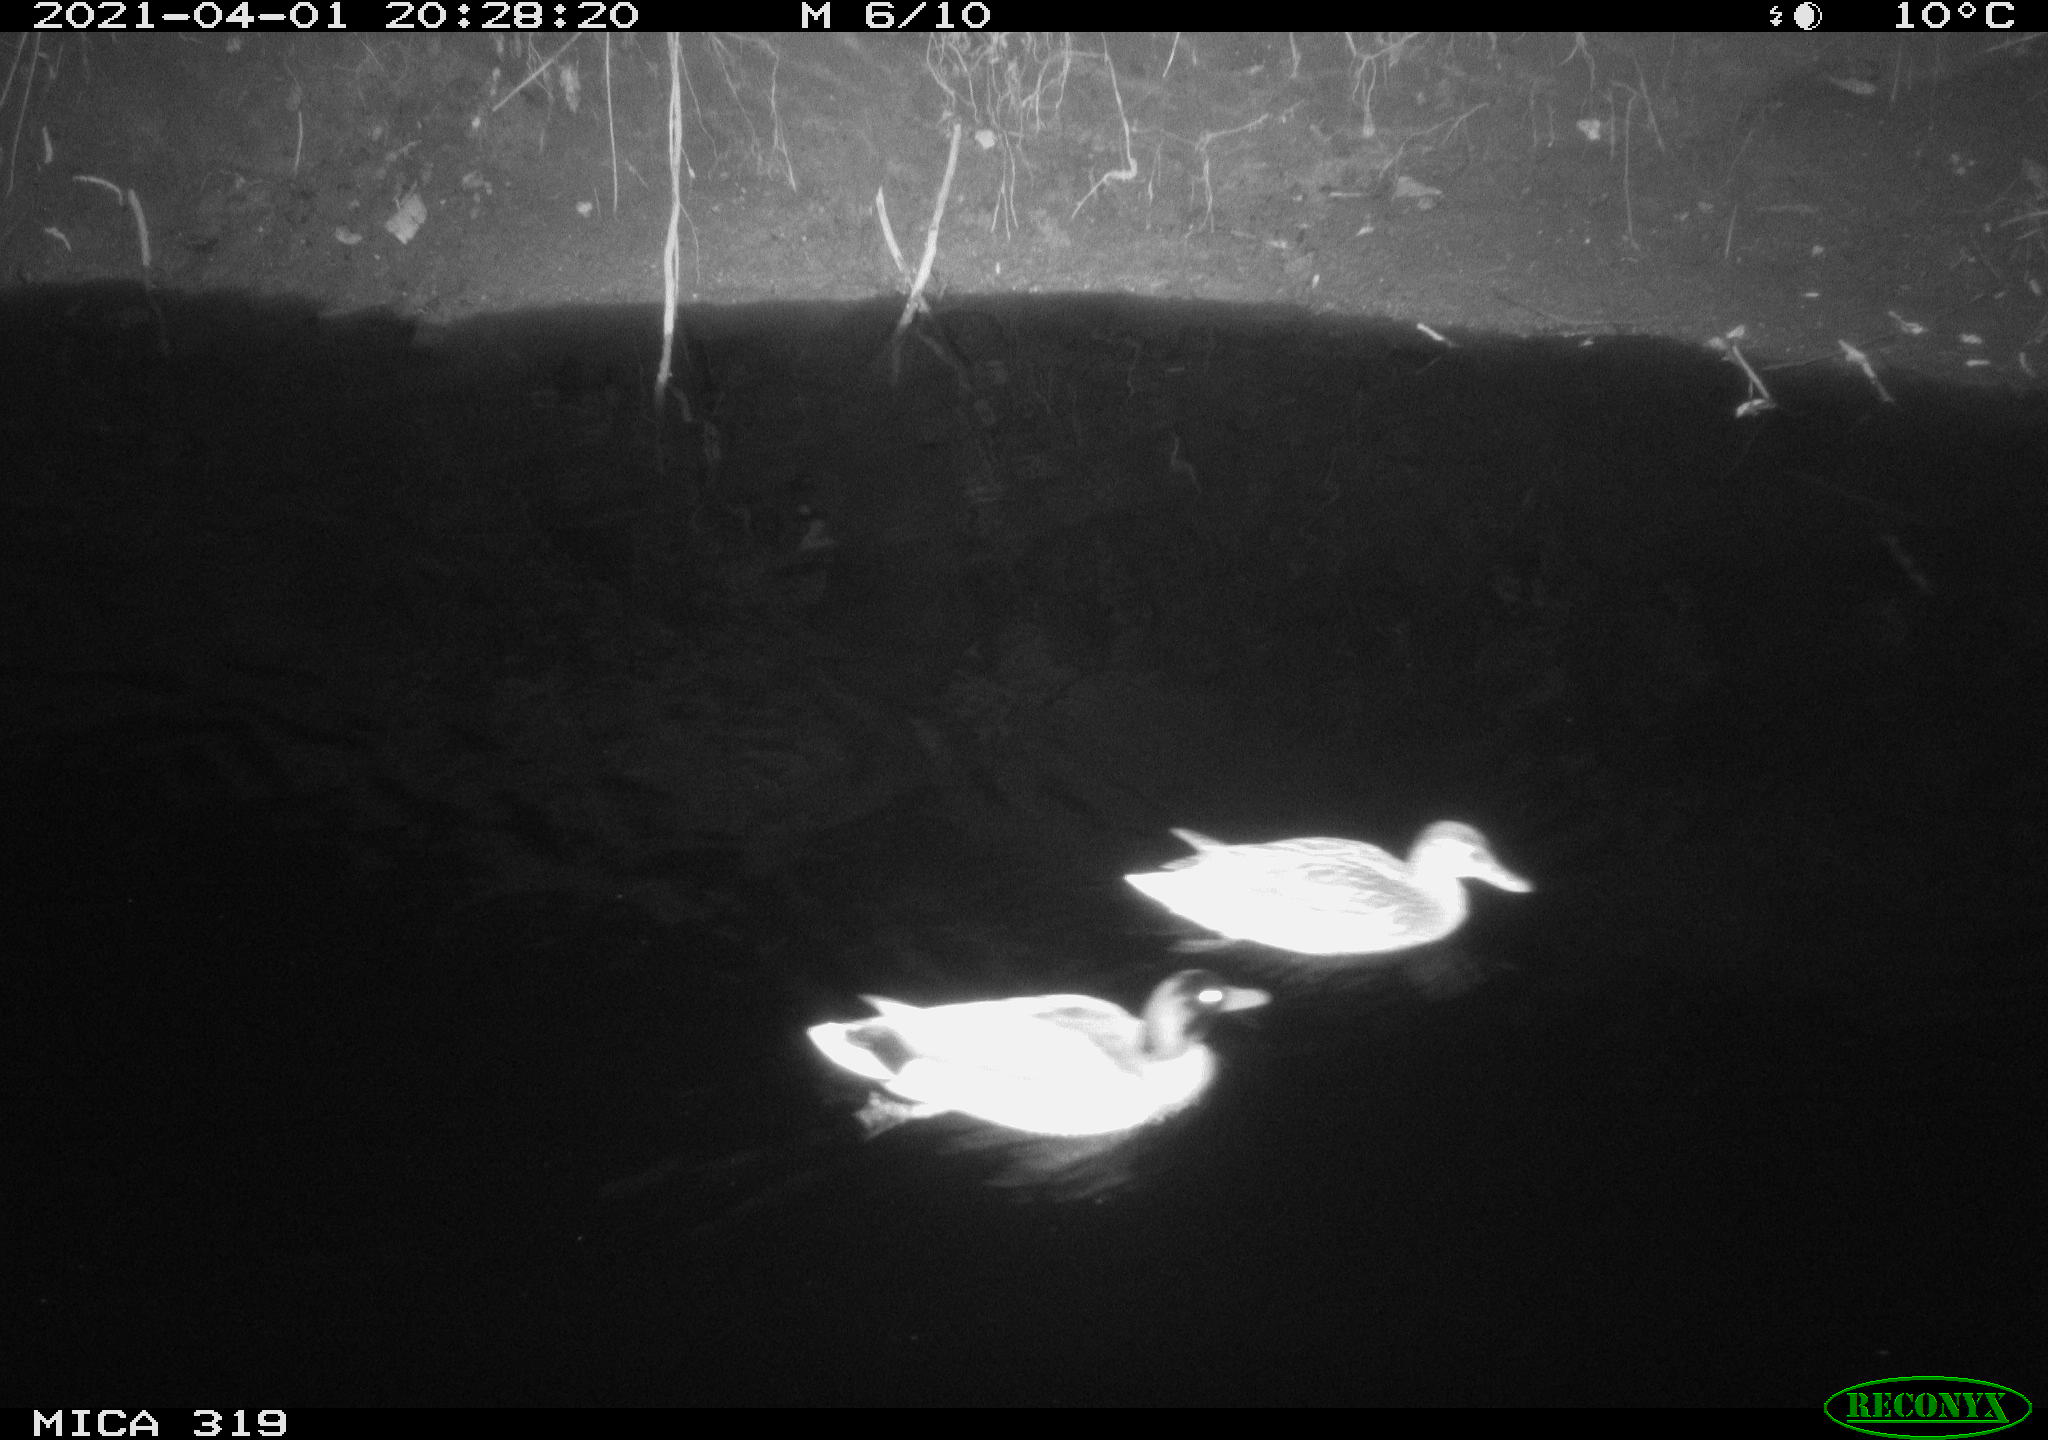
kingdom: Animalia
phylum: Chordata
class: Aves
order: Anseriformes
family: Anatidae
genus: Anas
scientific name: Anas platyrhynchos
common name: Mallard
